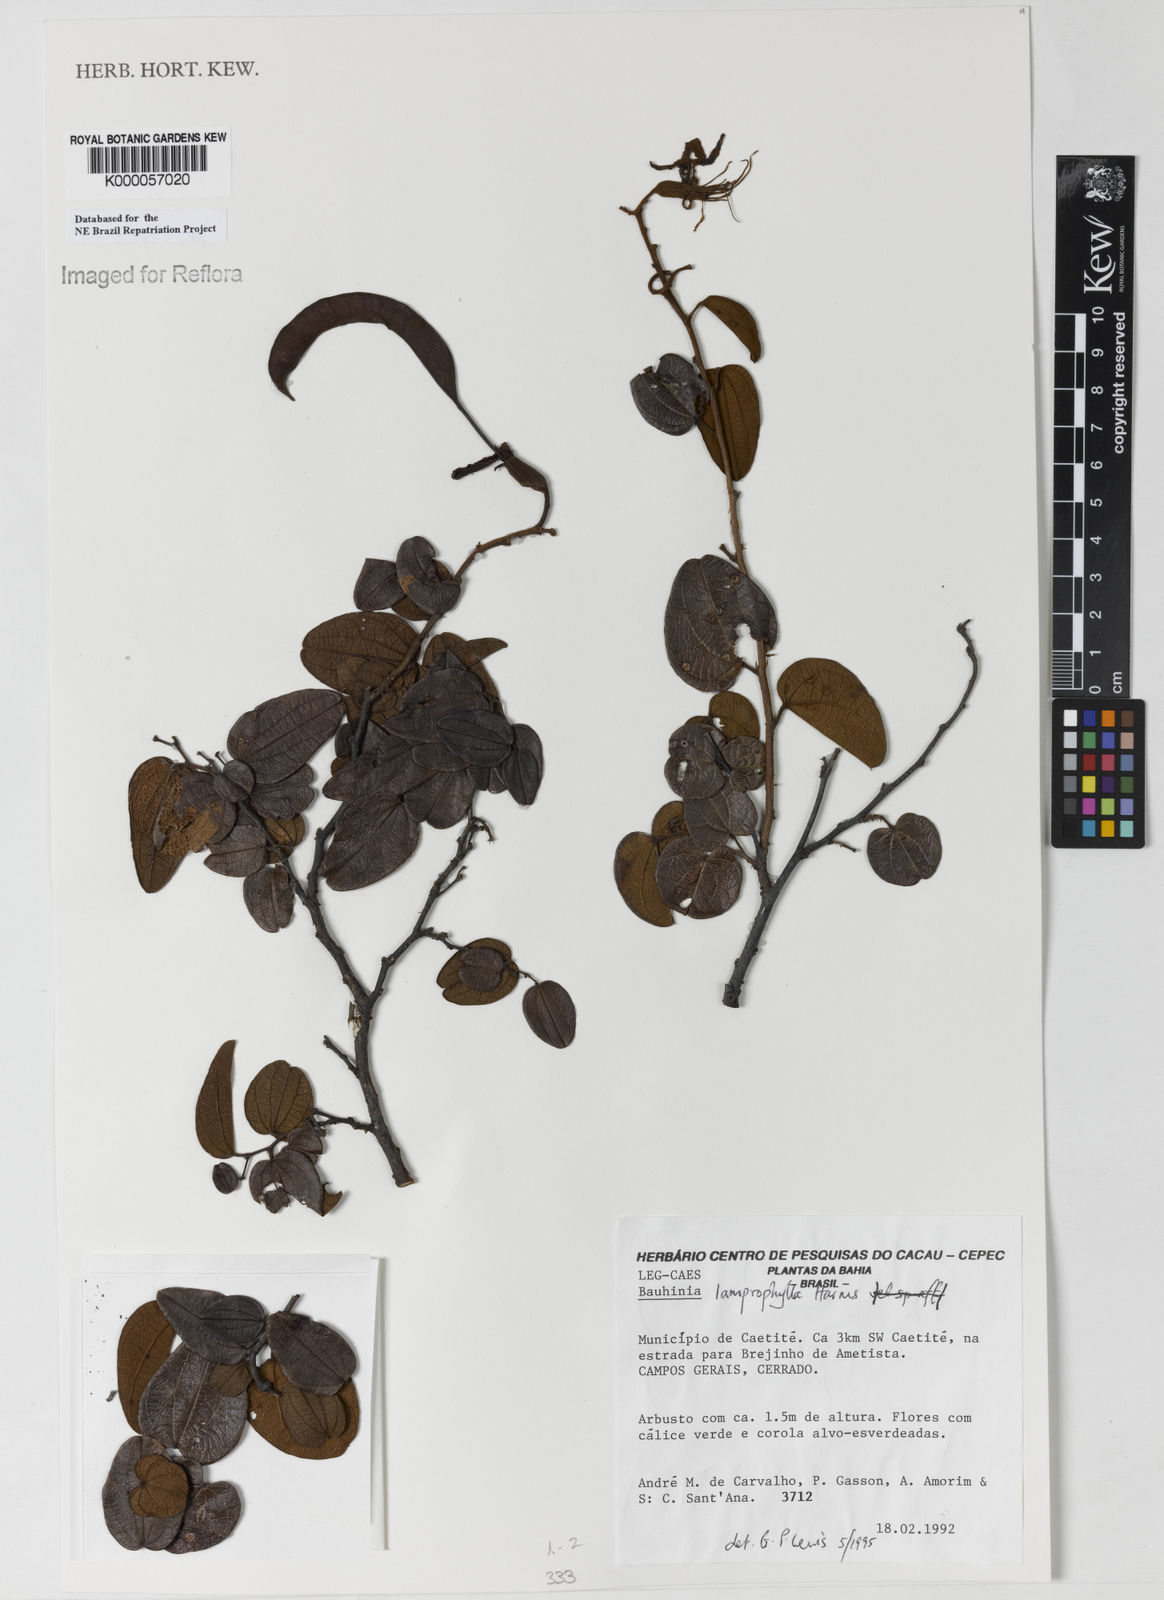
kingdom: Plantae
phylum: Tracheophyta
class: Magnoliopsida
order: Fabales
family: Fabaceae
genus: Bauhinia
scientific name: Bauhinia acuruana
